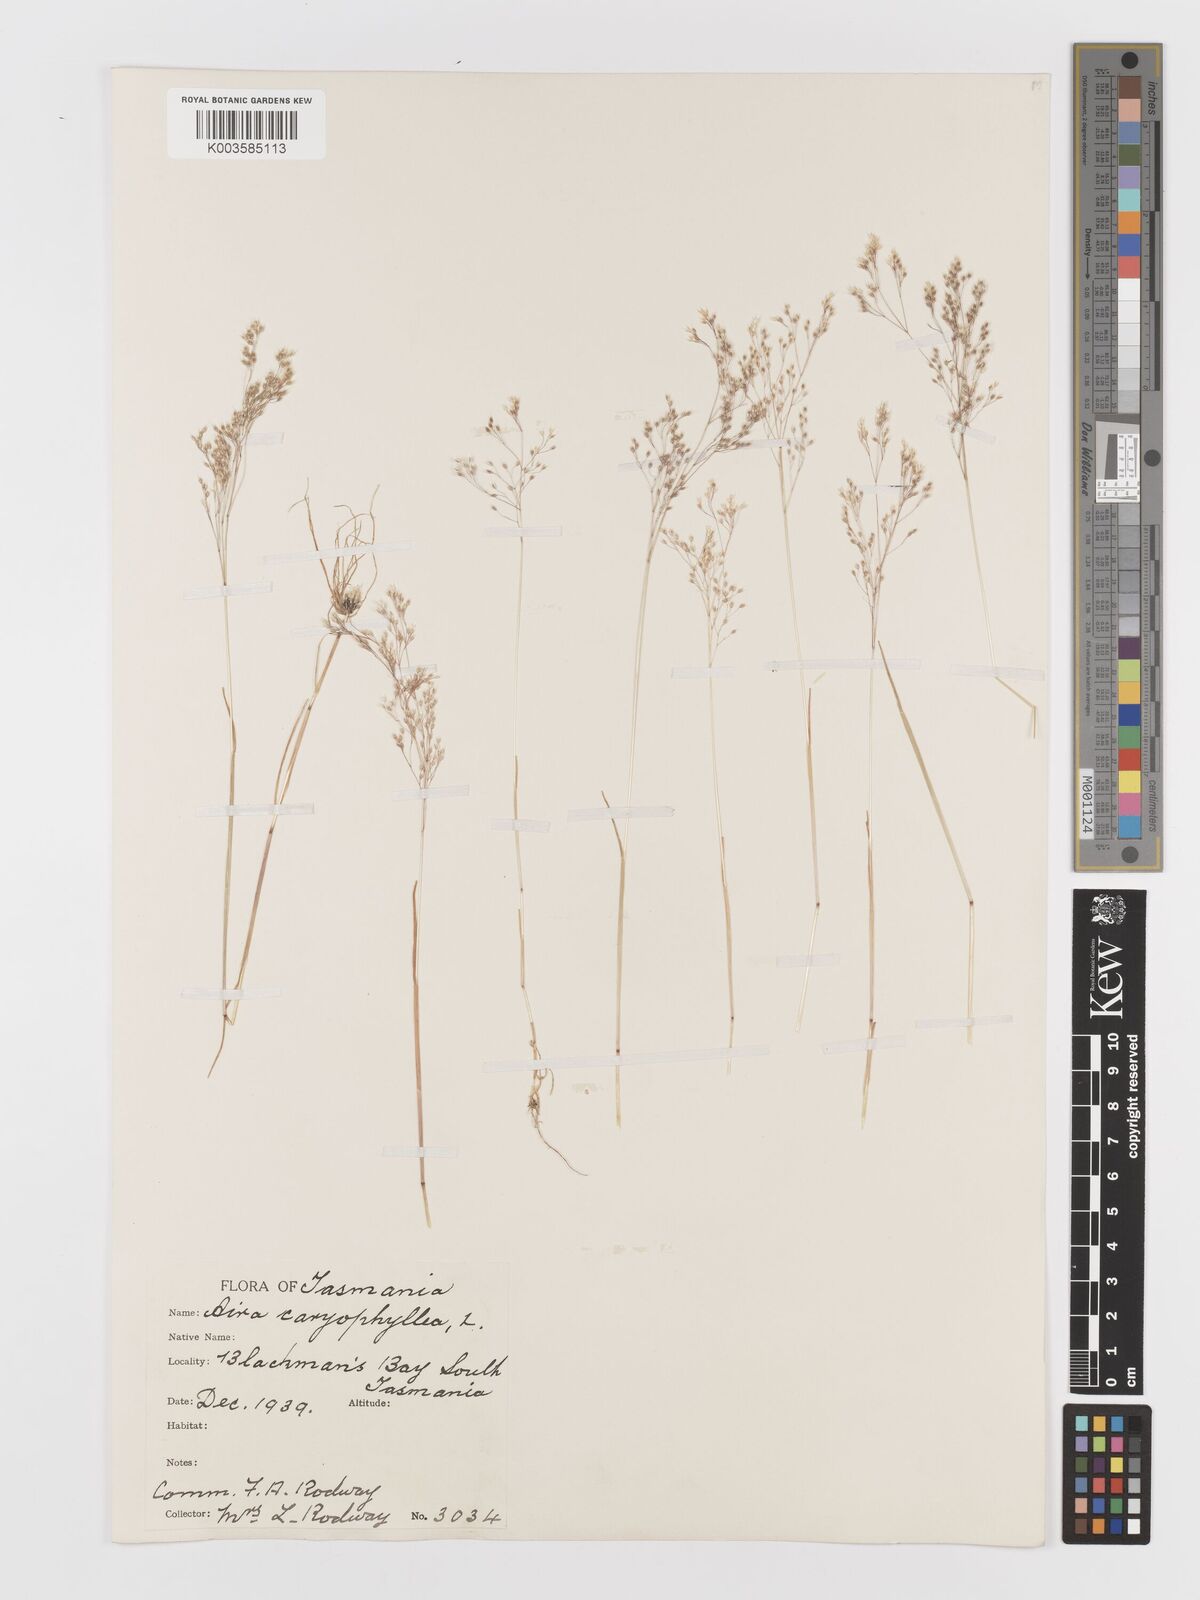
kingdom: Plantae
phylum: Tracheophyta
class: Liliopsida
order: Poales
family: Poaceae
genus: Aira
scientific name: Aira caryophyllea
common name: Silver hairgrass
